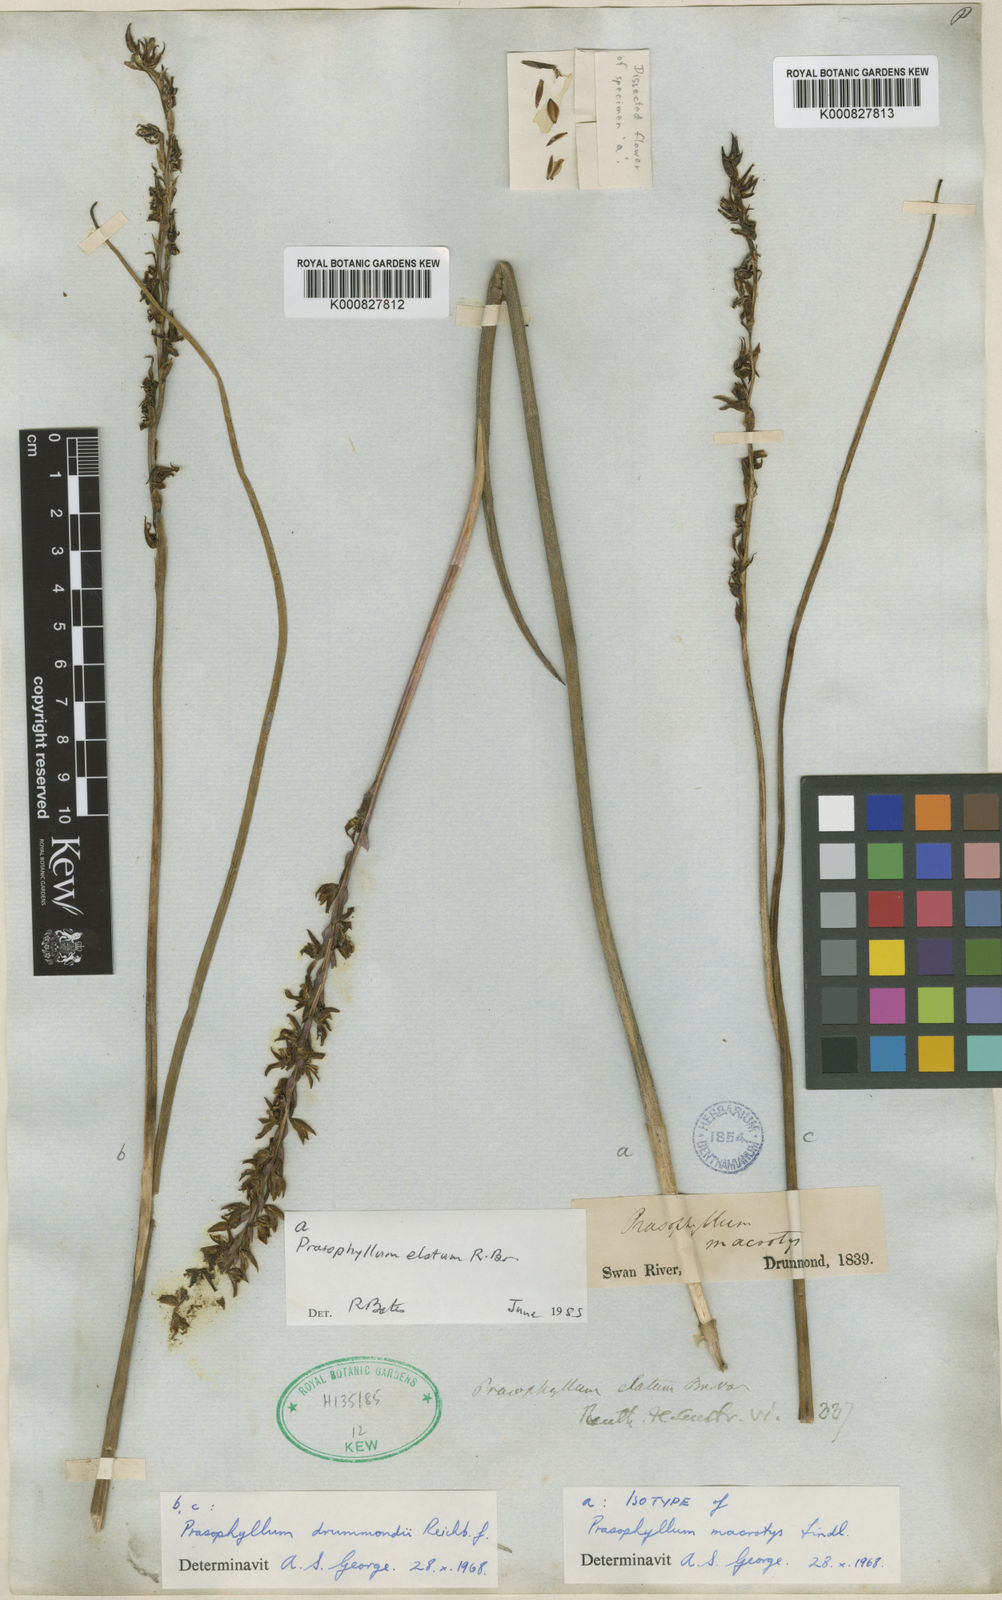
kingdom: Plantae
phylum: Tracheophyta
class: Liliopsida
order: Asparagales
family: Orchidaceae
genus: Prasophyllum
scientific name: Prasophyllum macrotys
